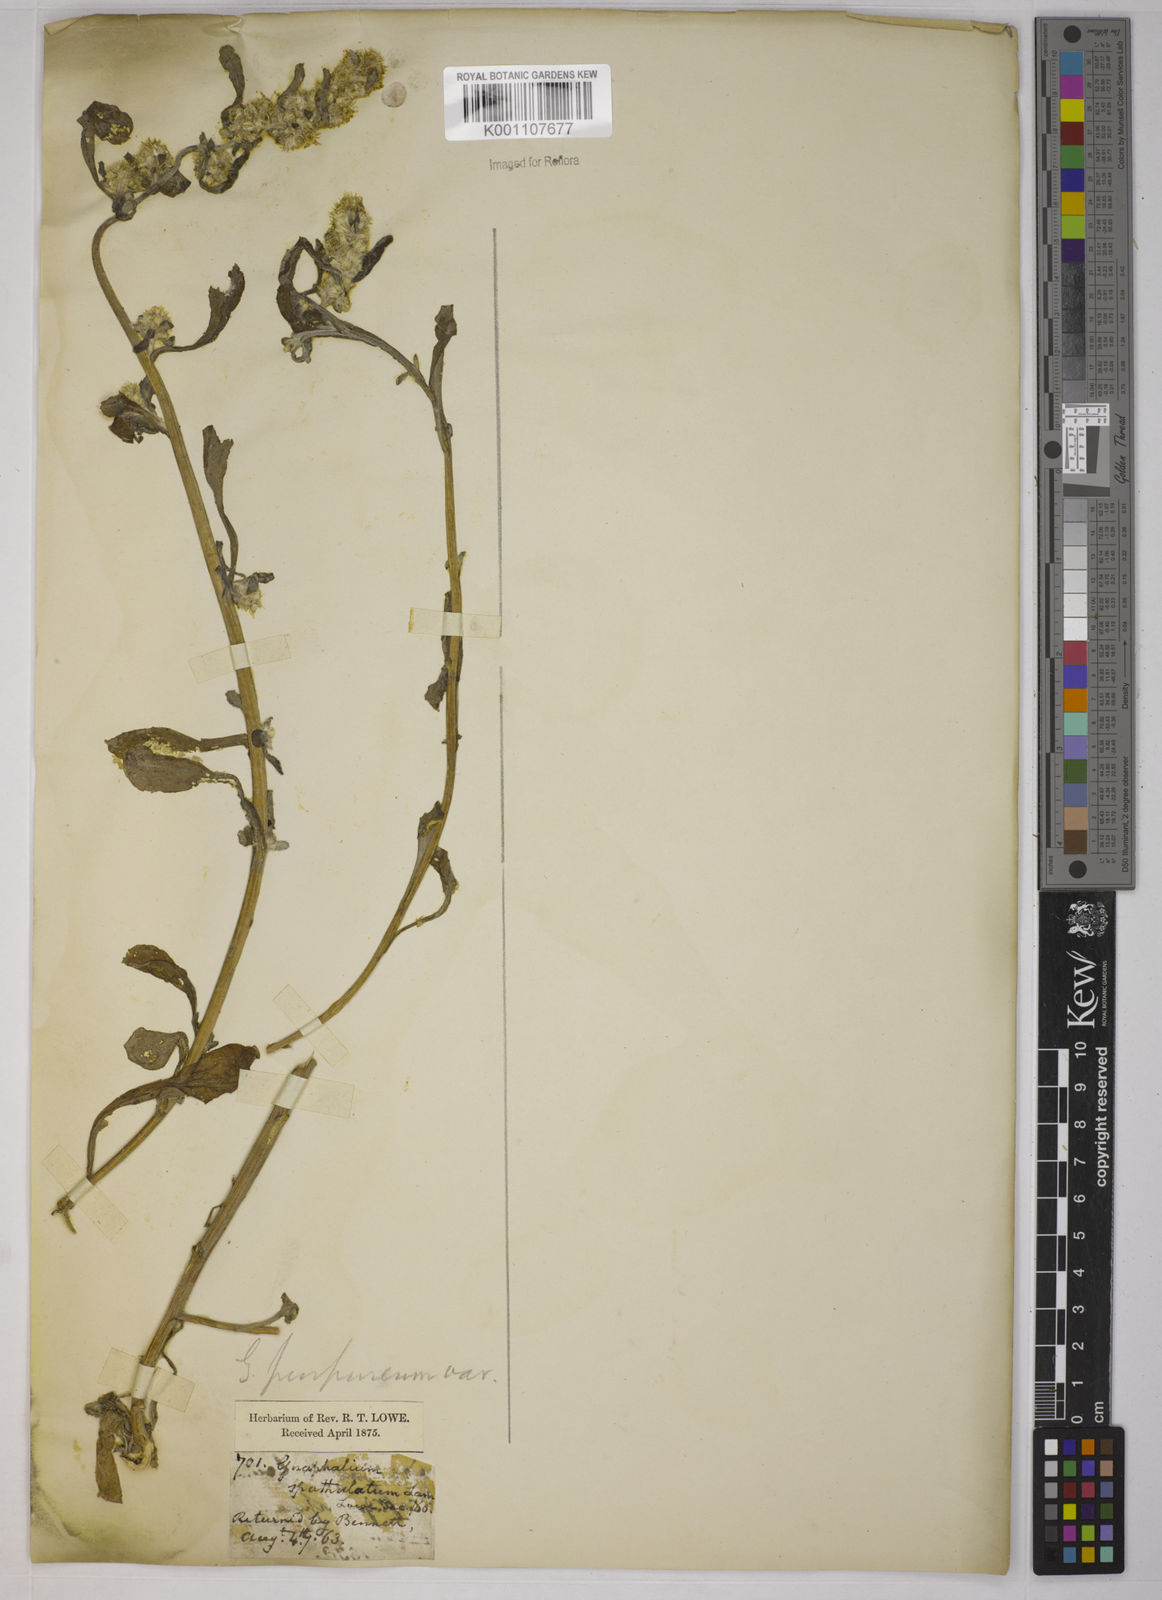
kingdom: Plantae
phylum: Tracheophyta
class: Magnoliopsida
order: Asterales
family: Asteraceae
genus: Gamochaeta
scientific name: Gamochaeta pensylvanica
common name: Pennsylvania everlasting
